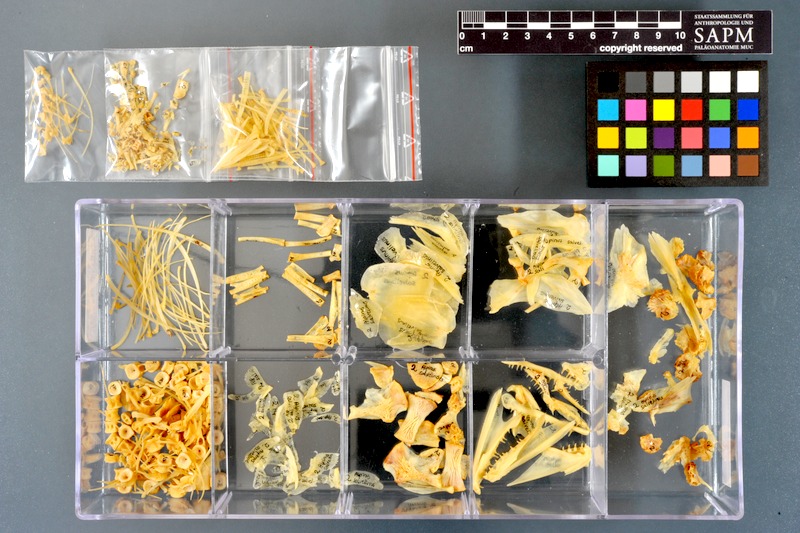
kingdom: Animalia
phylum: Chordata
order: Salmoniformes
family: Salmonidae
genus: Salvelinus
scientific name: Salvelinus alpinus
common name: Charr
